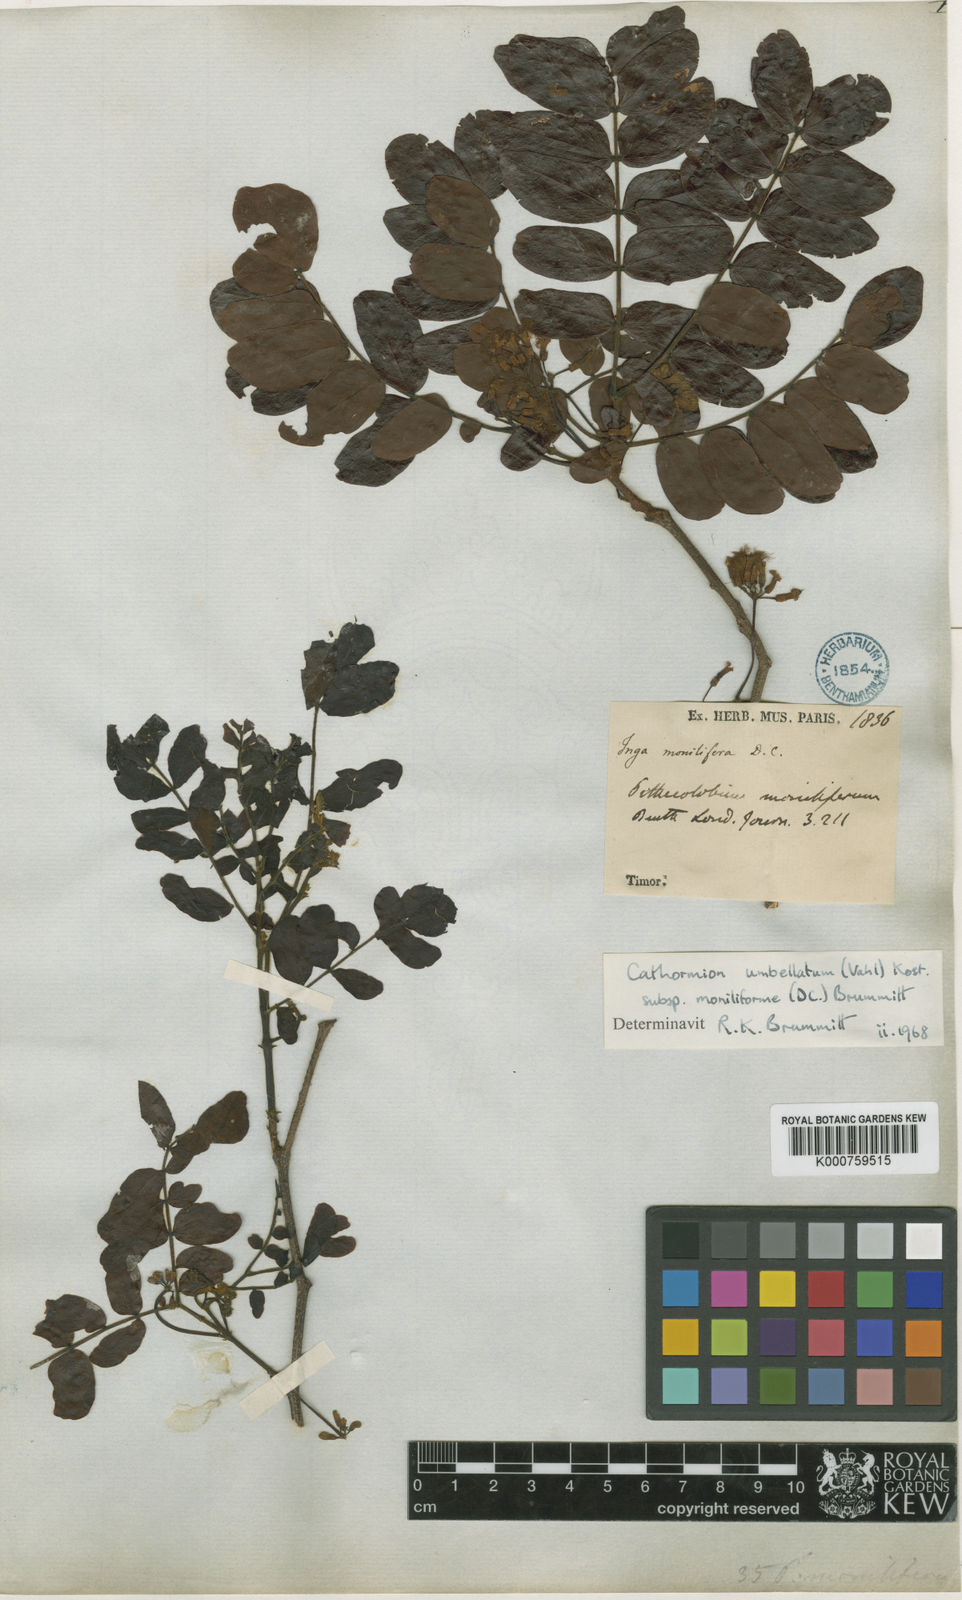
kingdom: Plantae
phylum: Tracheophyta
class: Magnoliopsida
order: Fabales
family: Fabaceae
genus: Cathormion
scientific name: Cathormion umbellatum
